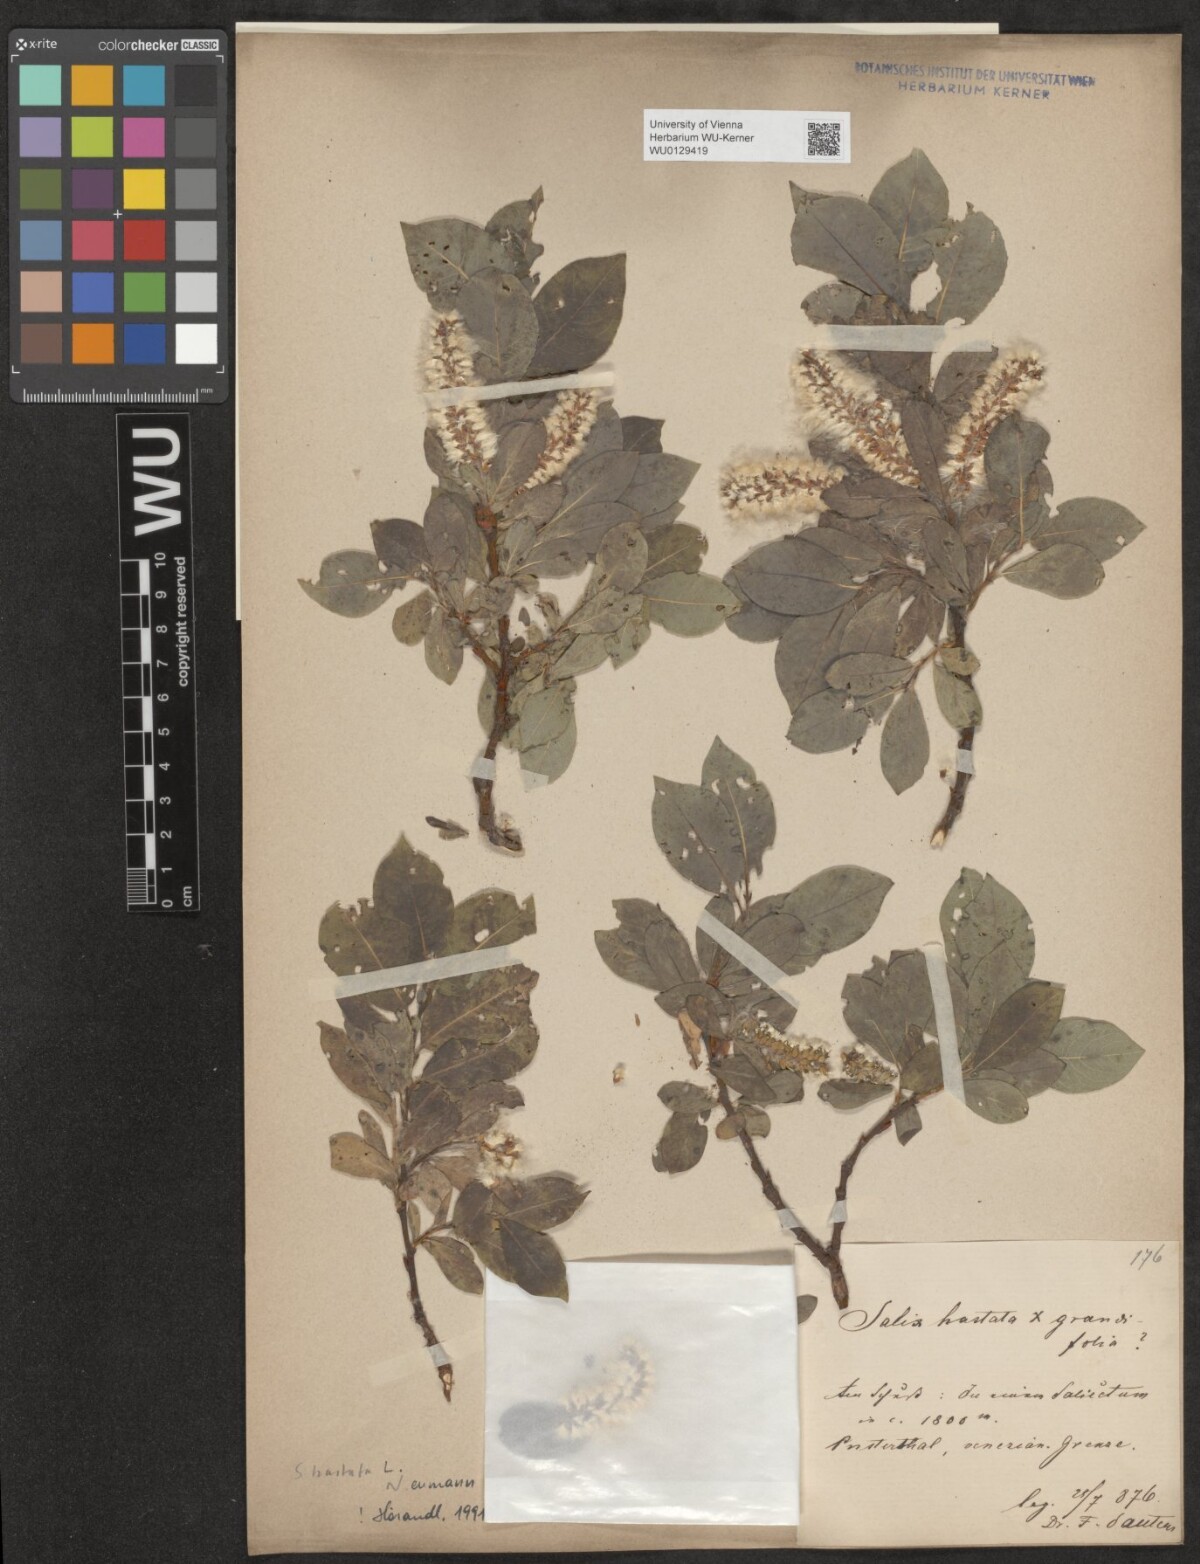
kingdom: Plantae
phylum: Tracheophyta
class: Magnoliopsida
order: Malpighiales
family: Salicaceae
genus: Salix
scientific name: Salix hastata
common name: Halberd willow
